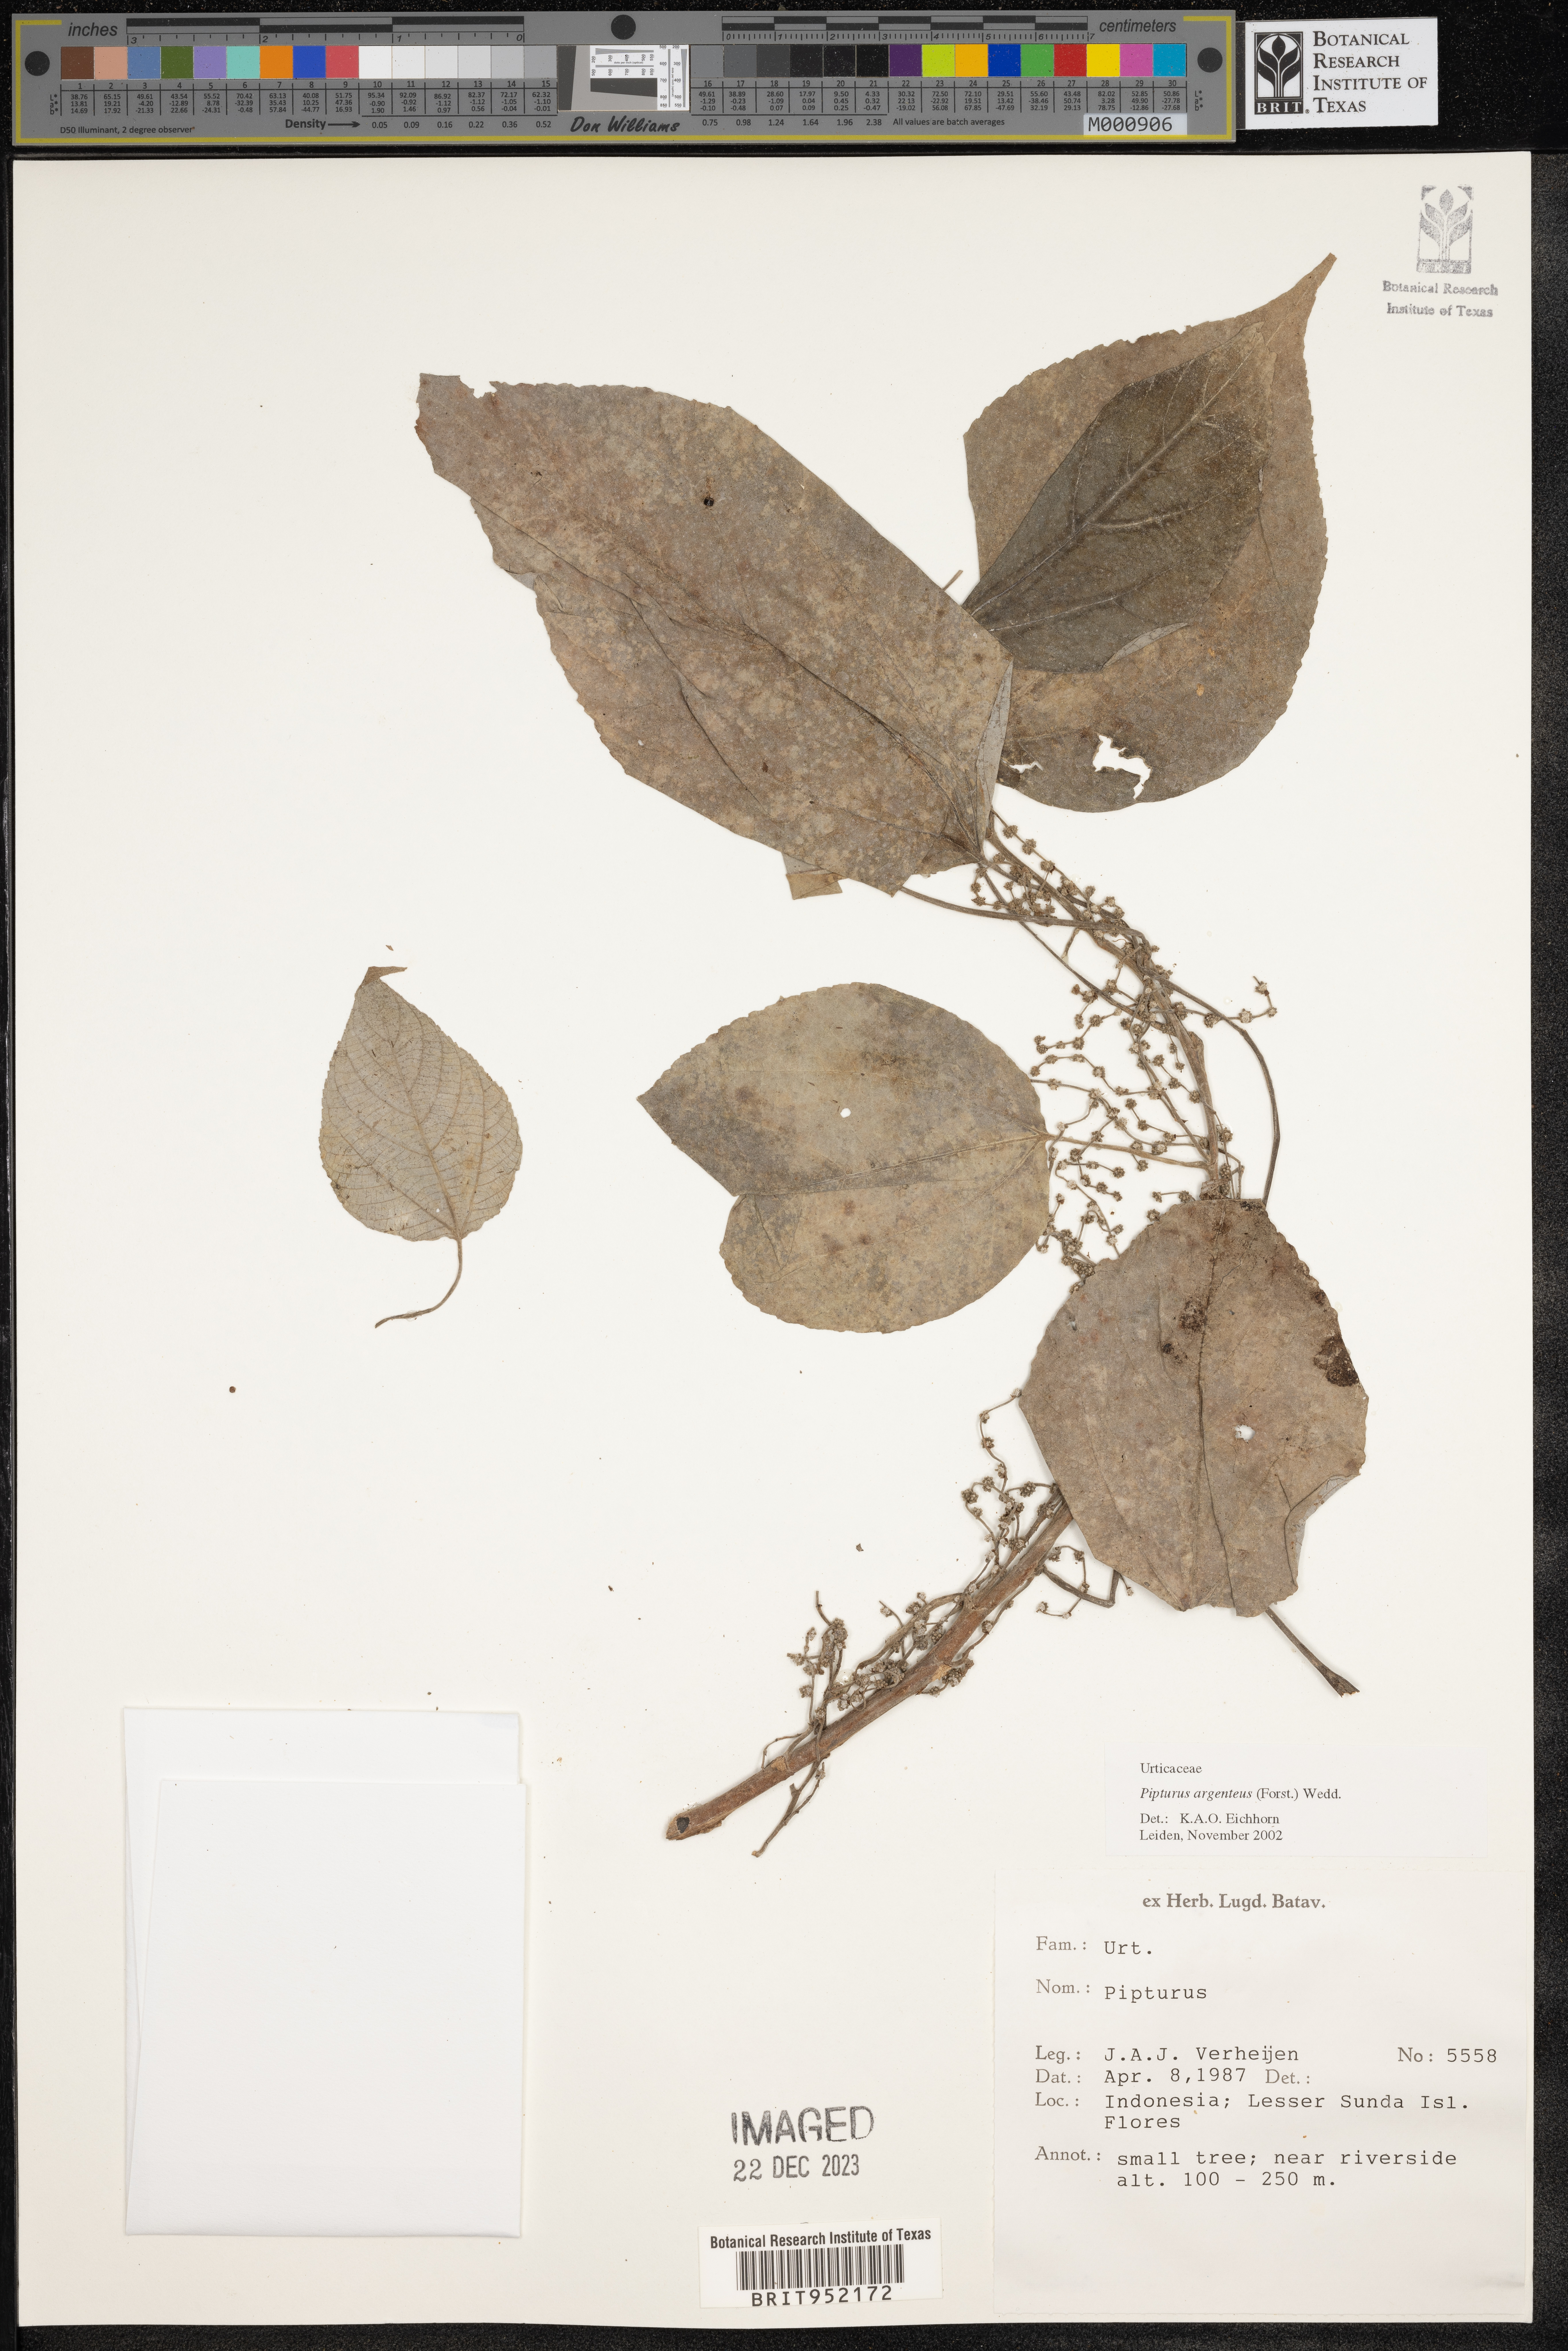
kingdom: Plantae
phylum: Tracheophyta
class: Magnoliopsida
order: Rosales
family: Urticaceae
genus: Pipturus
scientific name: Pipturus argenteus
